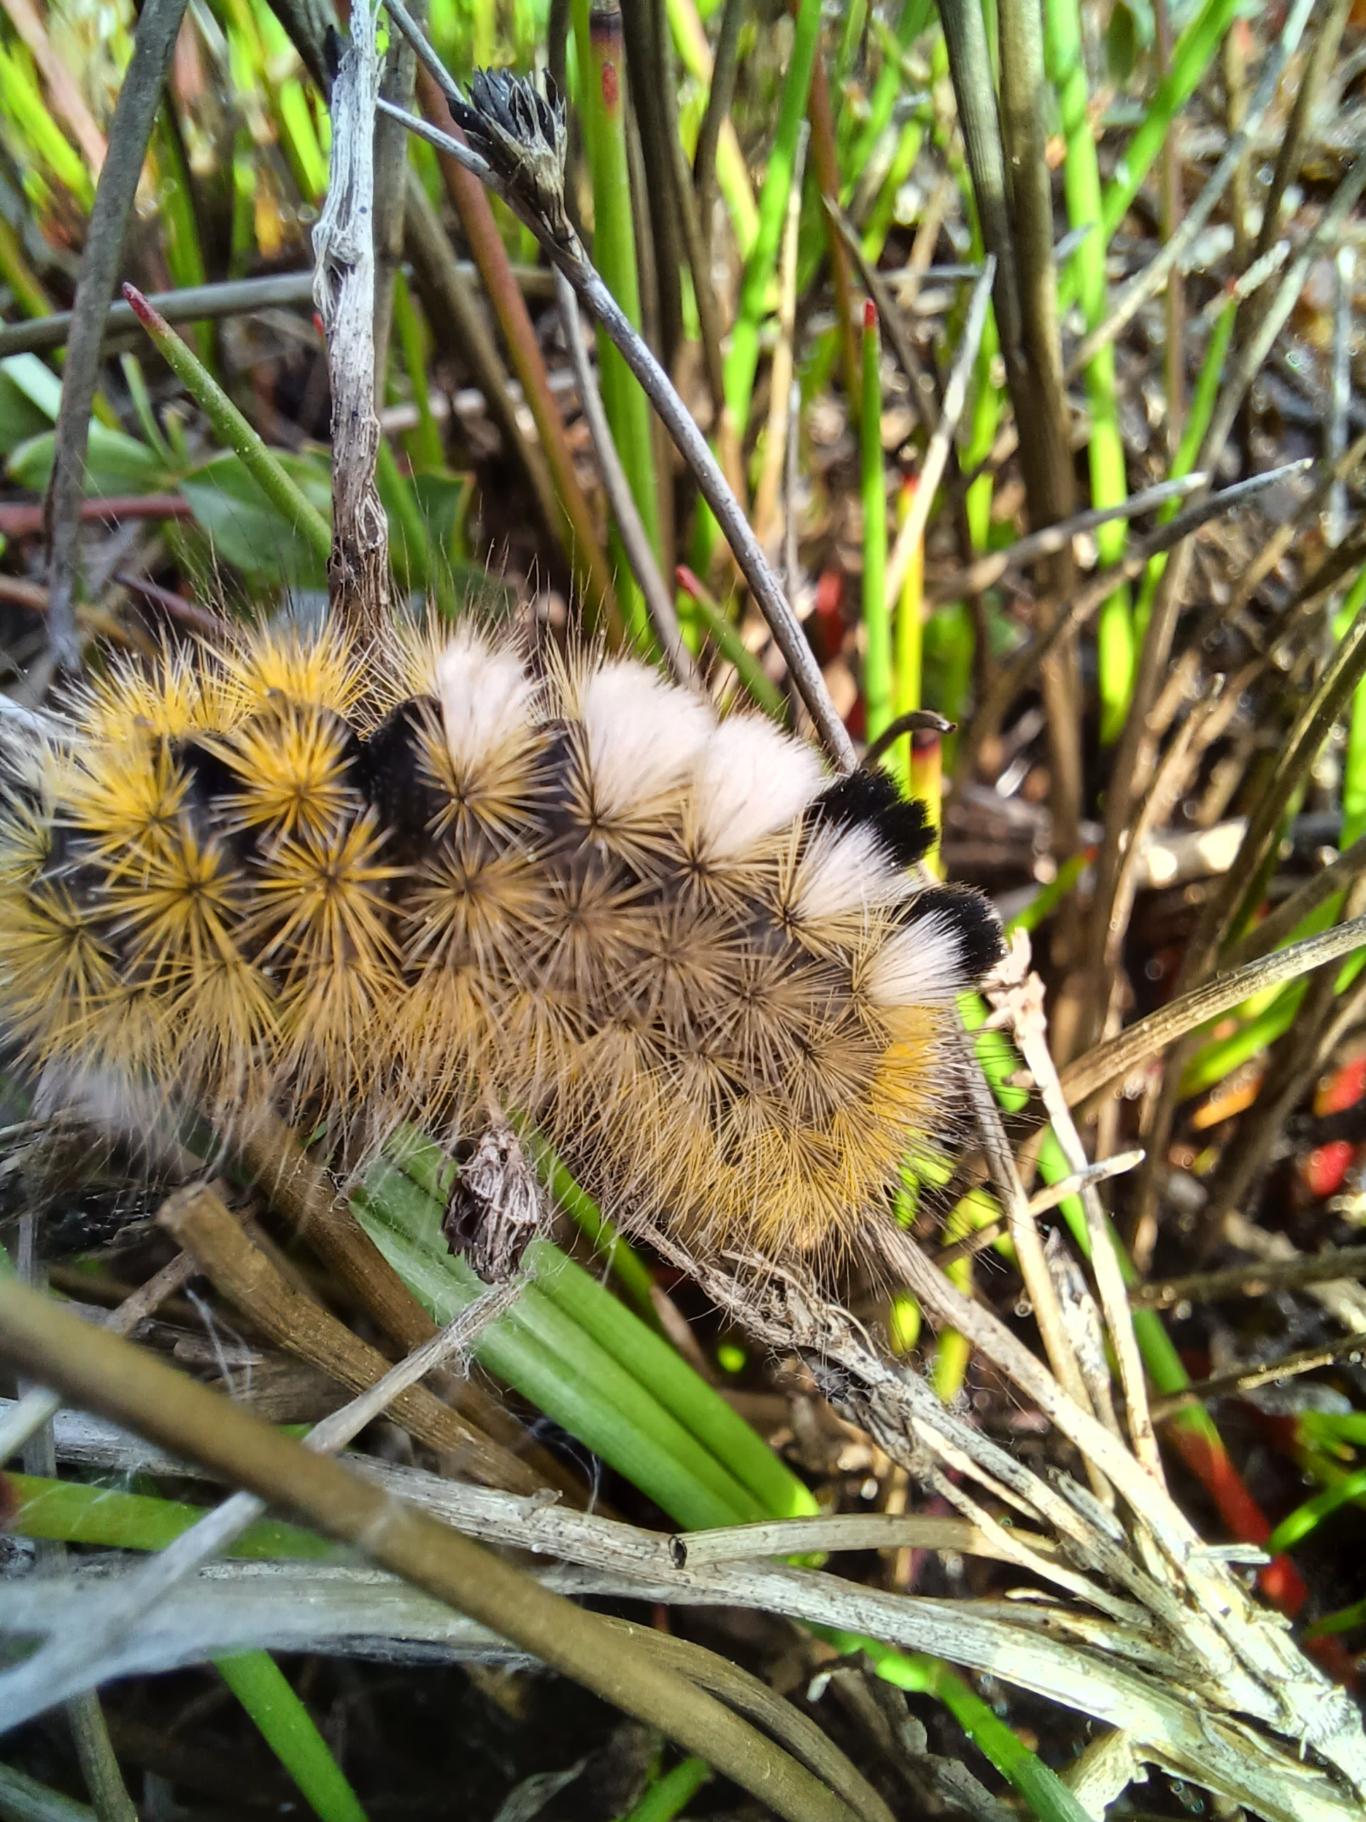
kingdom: Animalia
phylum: Arthropoda
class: Insecta
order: Lepidoptera
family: Erebidae
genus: Calliteara
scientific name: Calliteara Dicallomera fascelina
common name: Hedenonne
